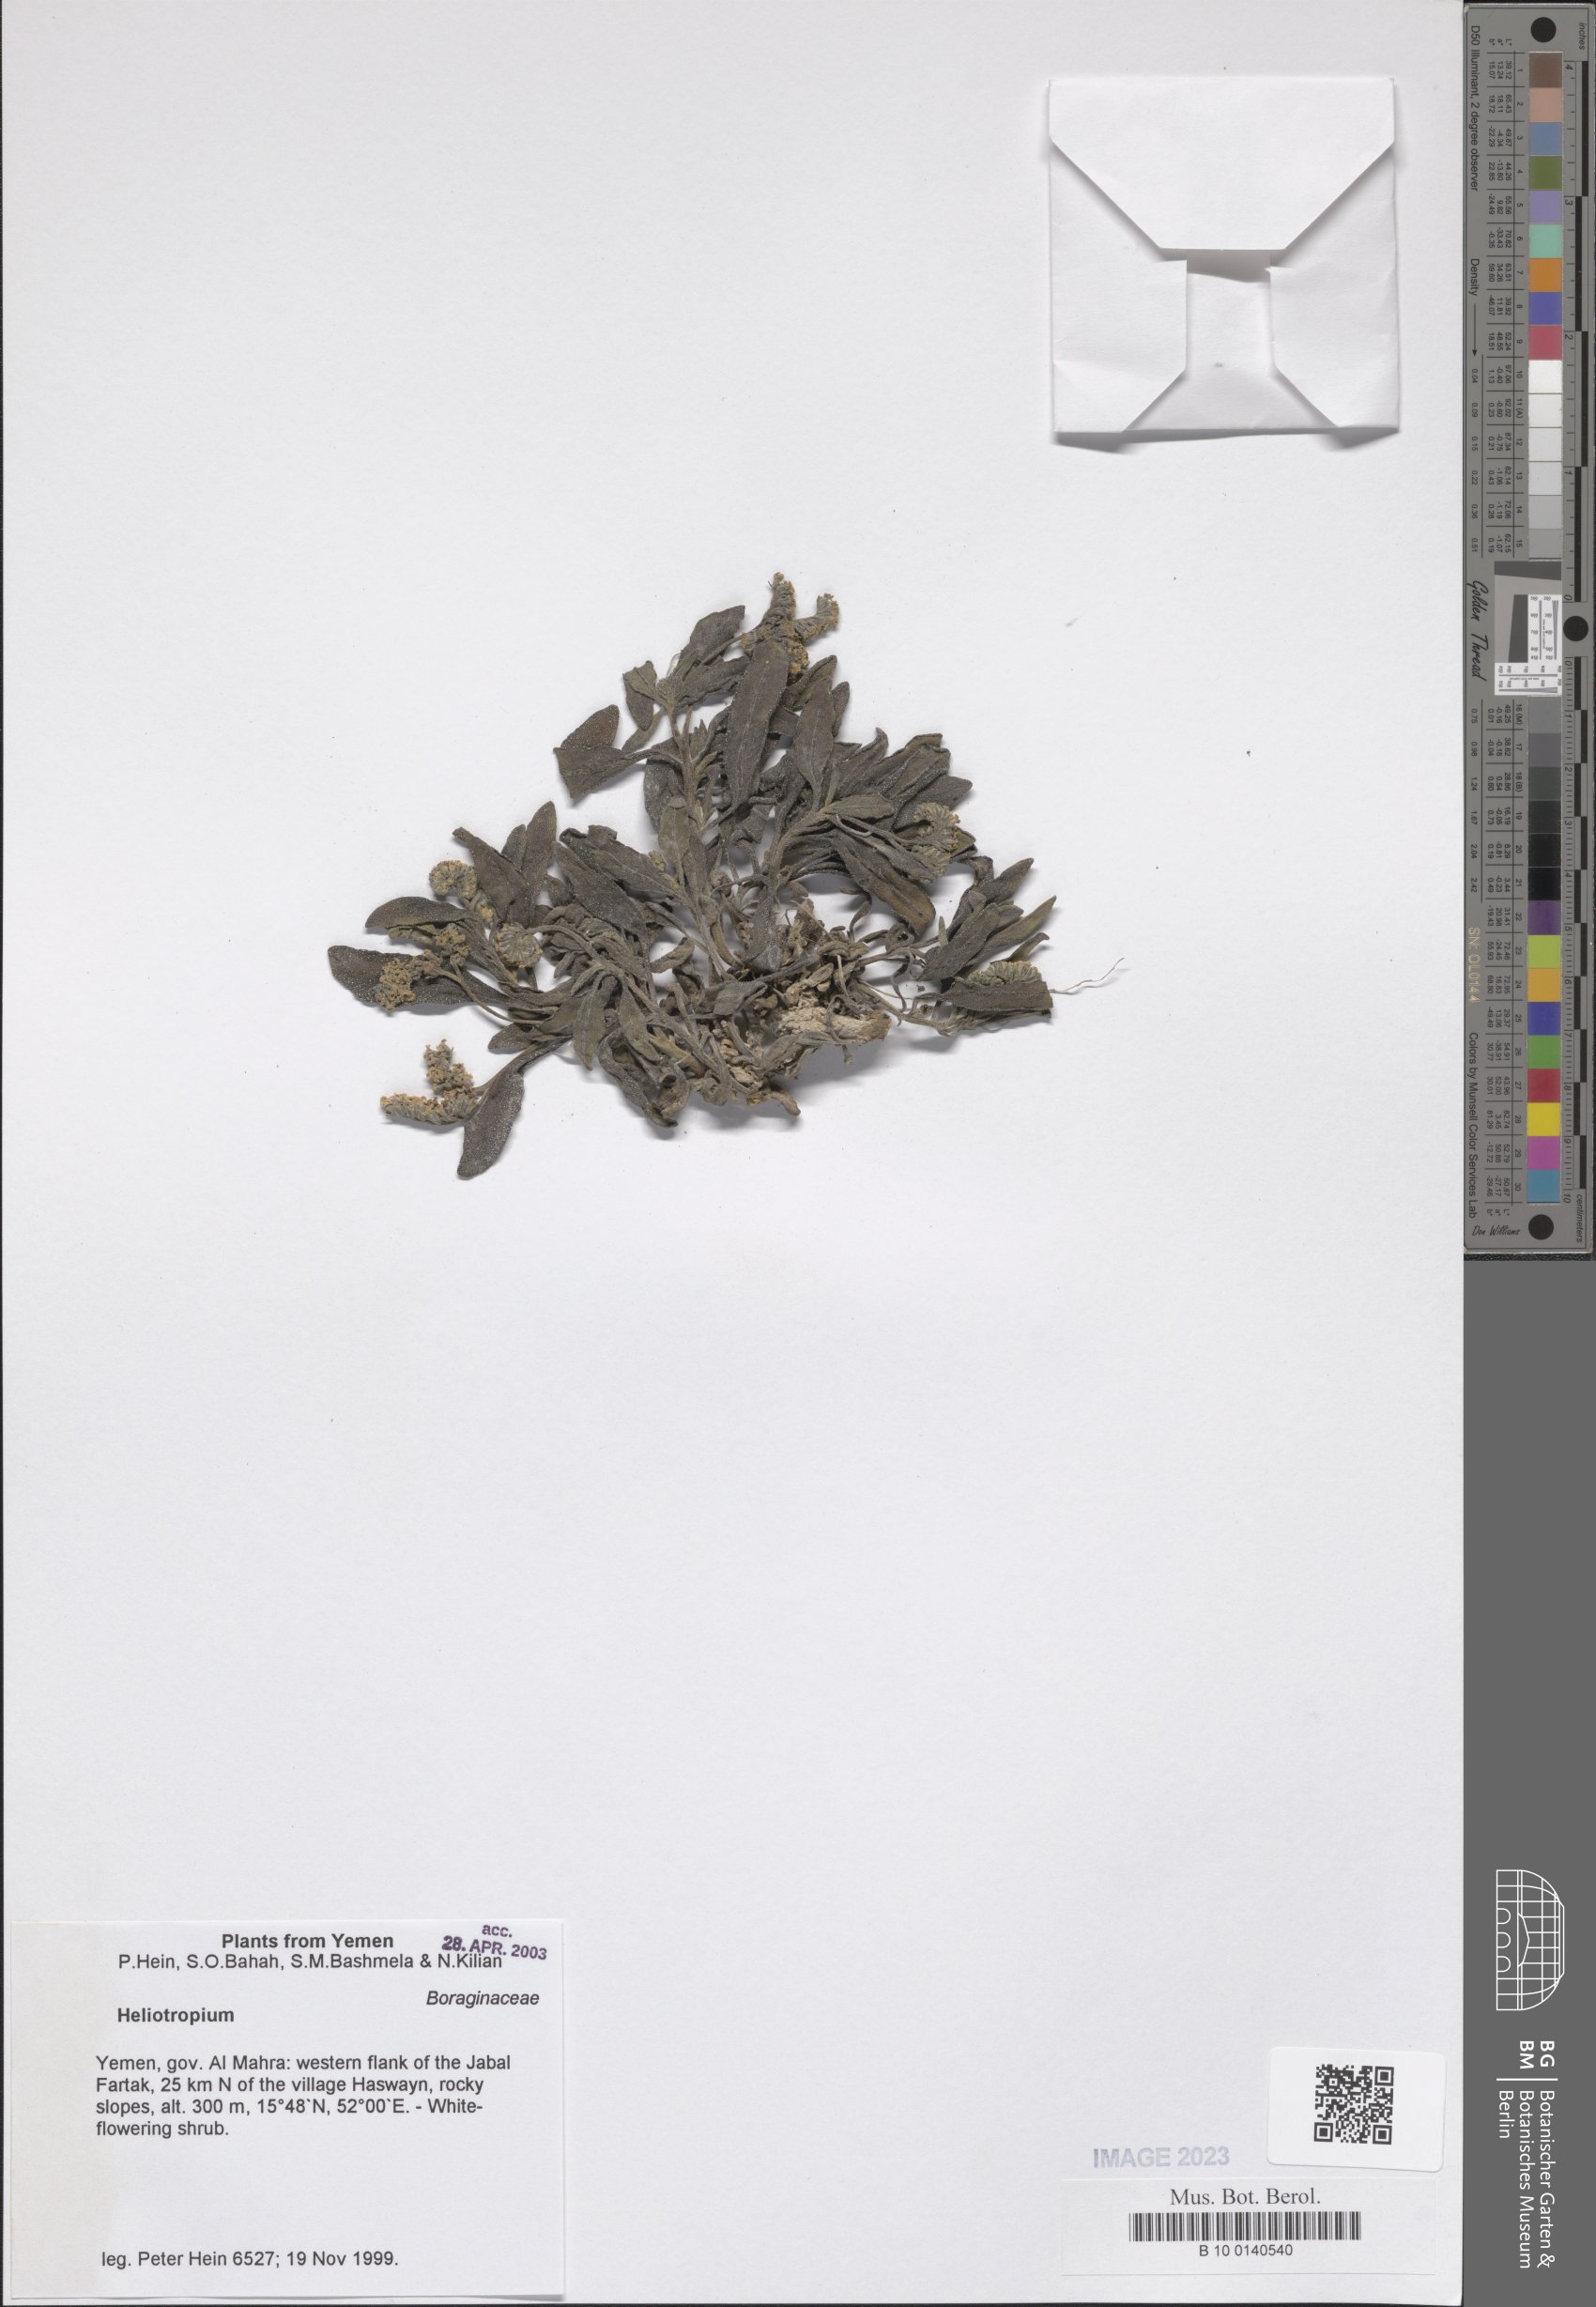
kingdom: Plantae
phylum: Tracheophyta
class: Magnoliopsida
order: Boraginales
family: Heliotropiaceae
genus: Heliotropium
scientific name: Heliotropium
